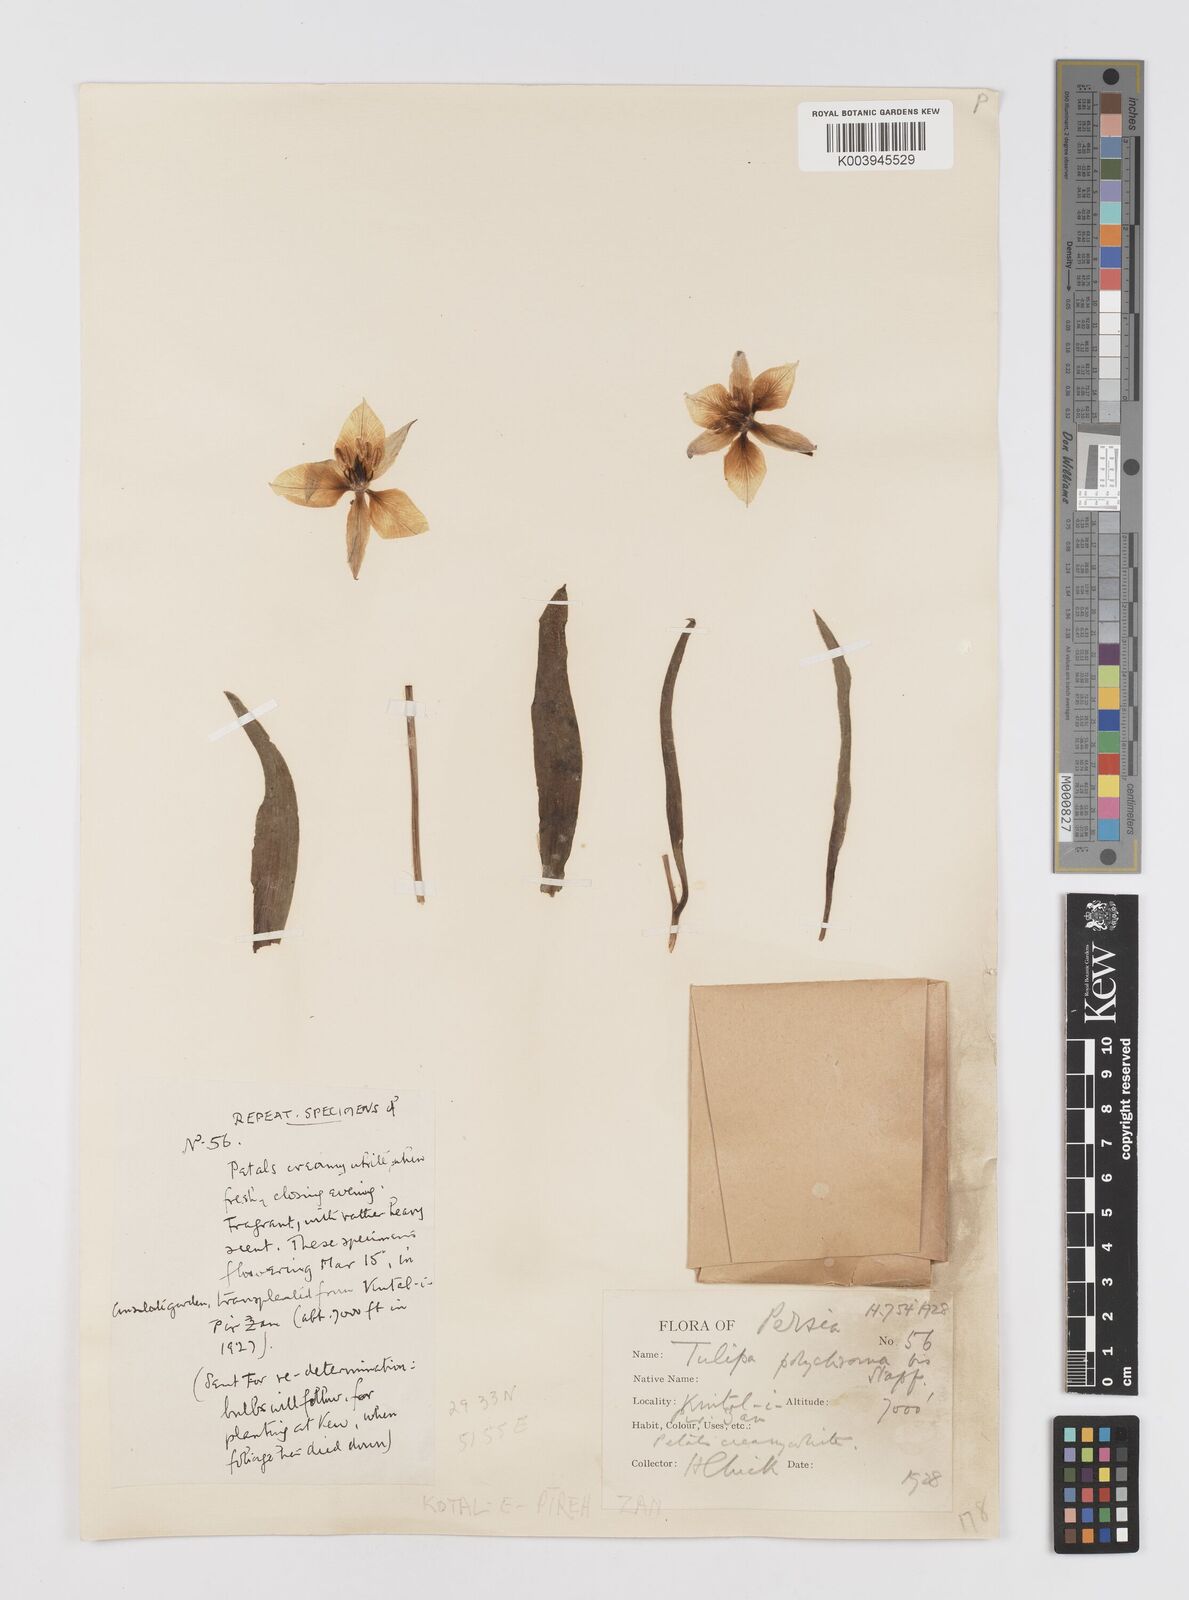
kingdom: Plantae
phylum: Tracheophyta
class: Liliopsida
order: Liliales
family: Liliaceae
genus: Tulipa
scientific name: Tulipa biflora
